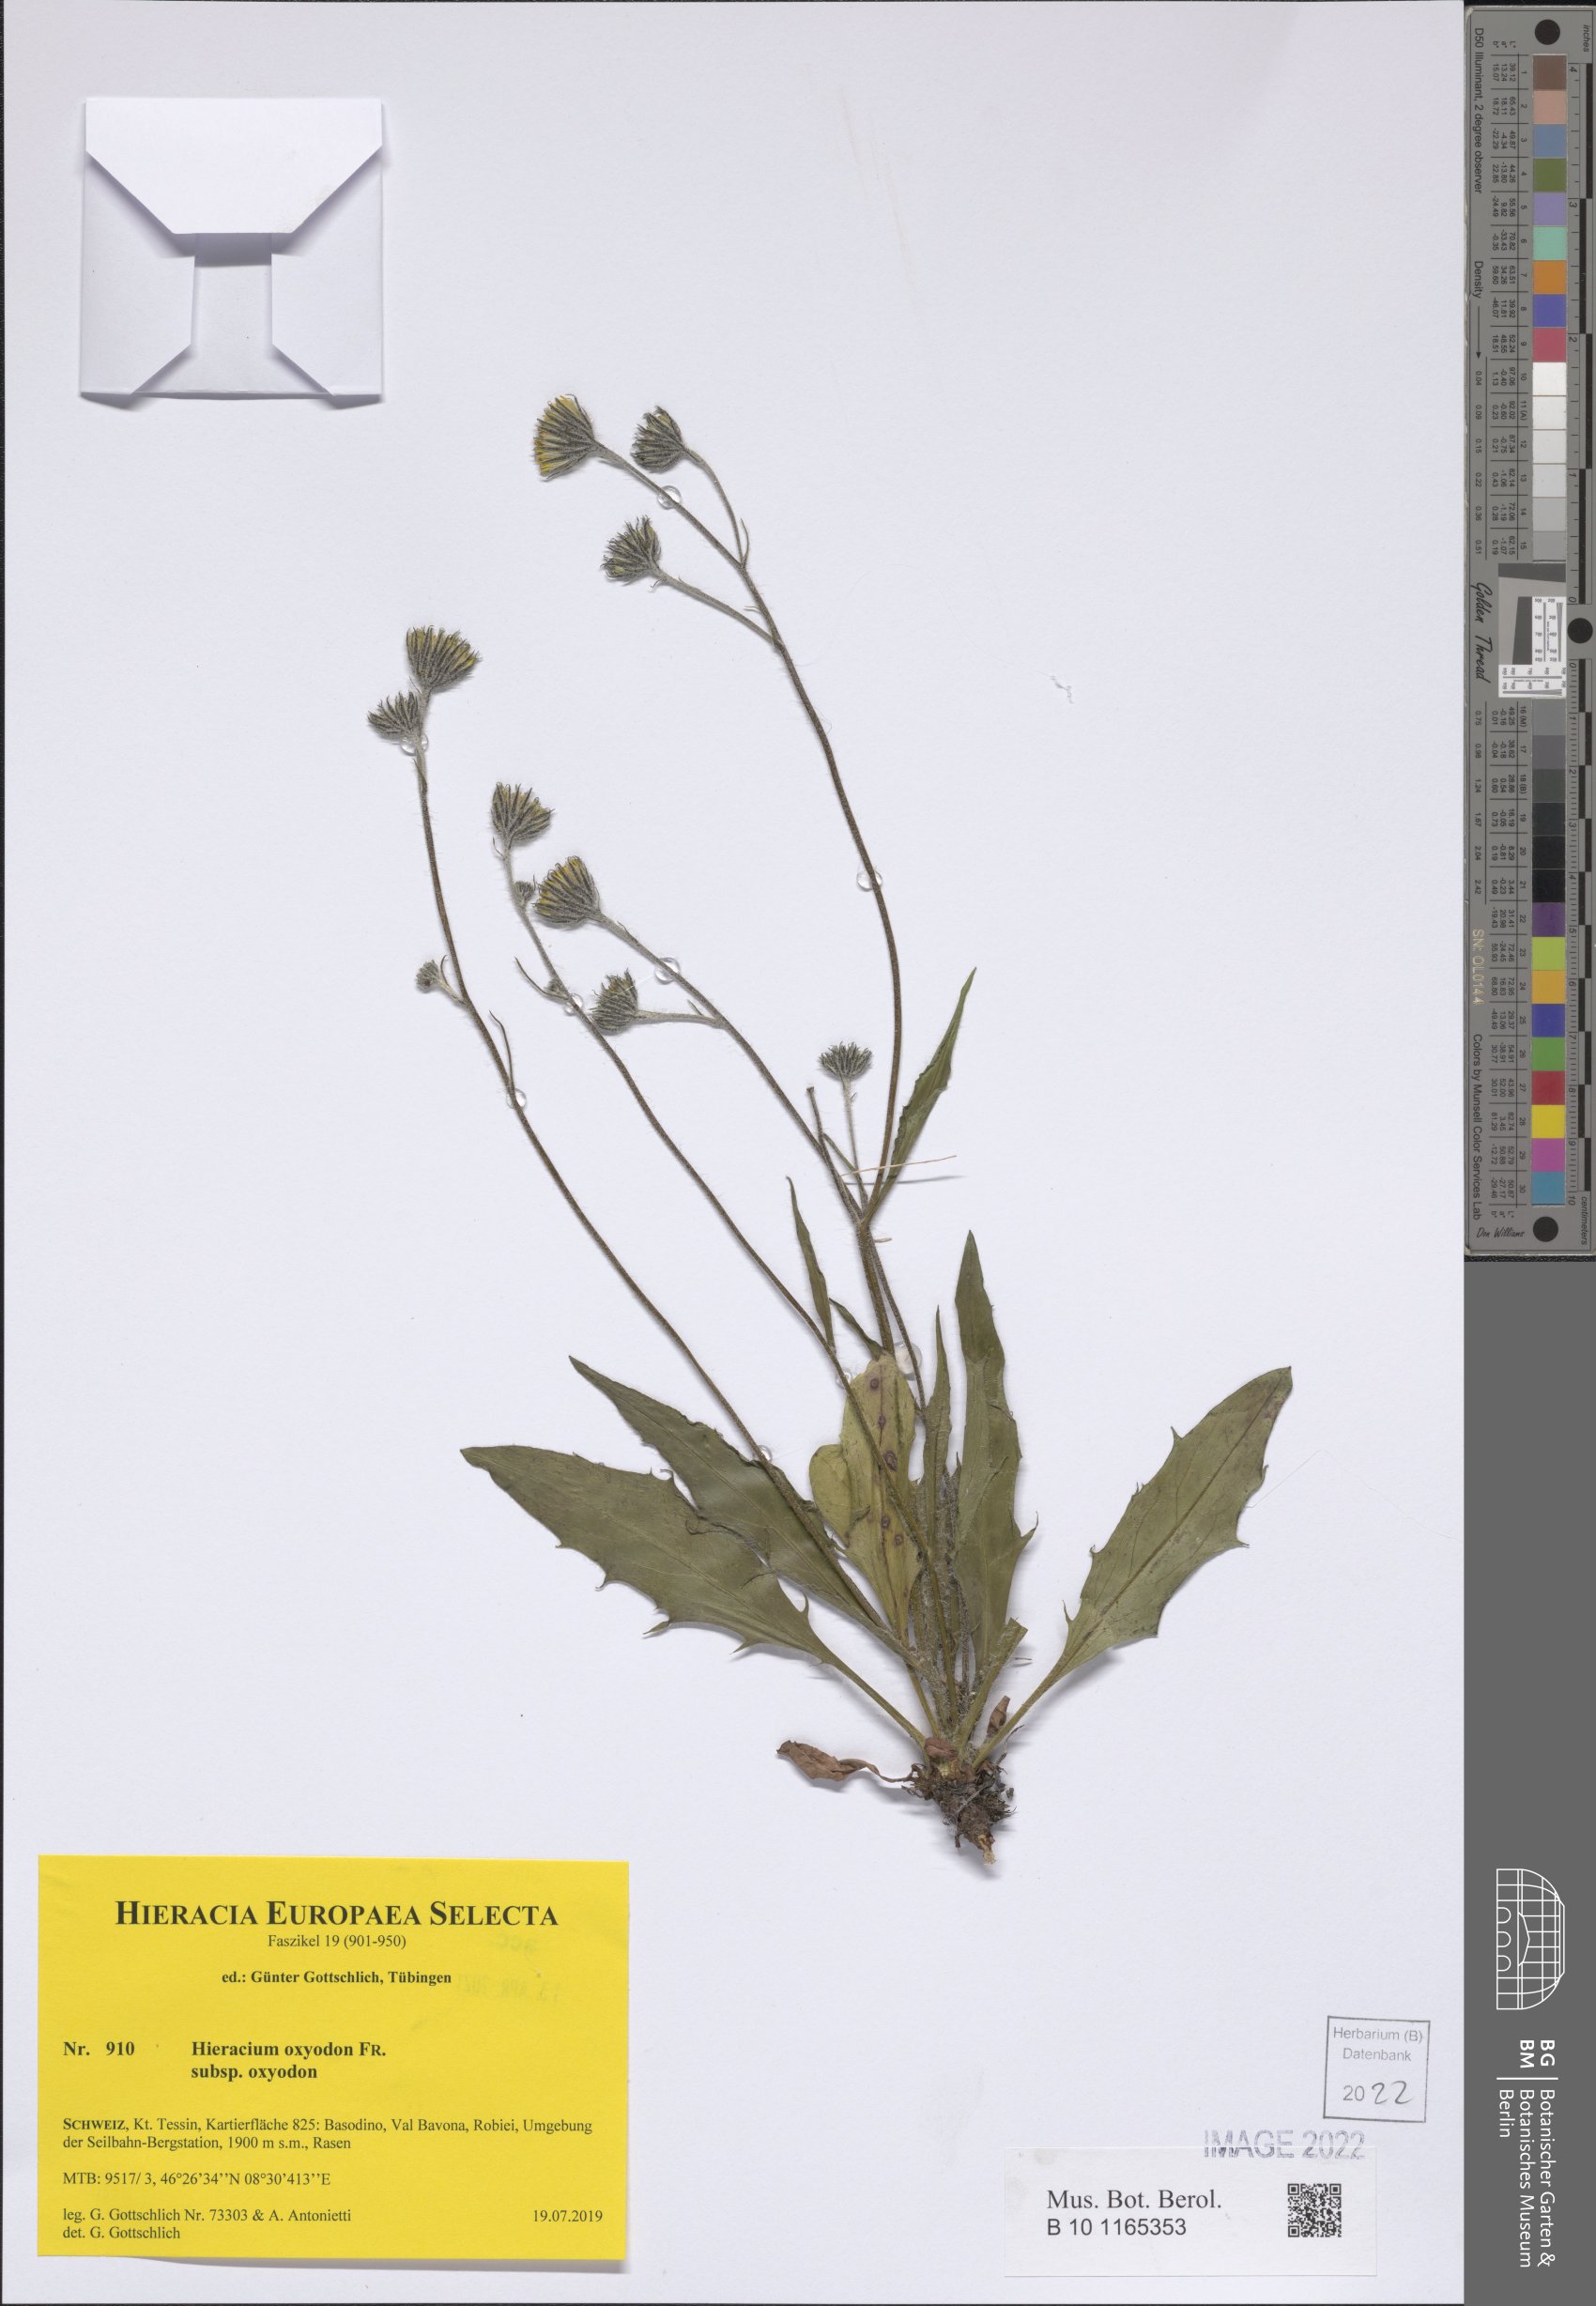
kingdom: Plantae
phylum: Tracheophyta
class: Magnoliopsida
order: Asterales
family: Asteraceae
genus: Hieracium
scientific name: Hieracium oxyodon
